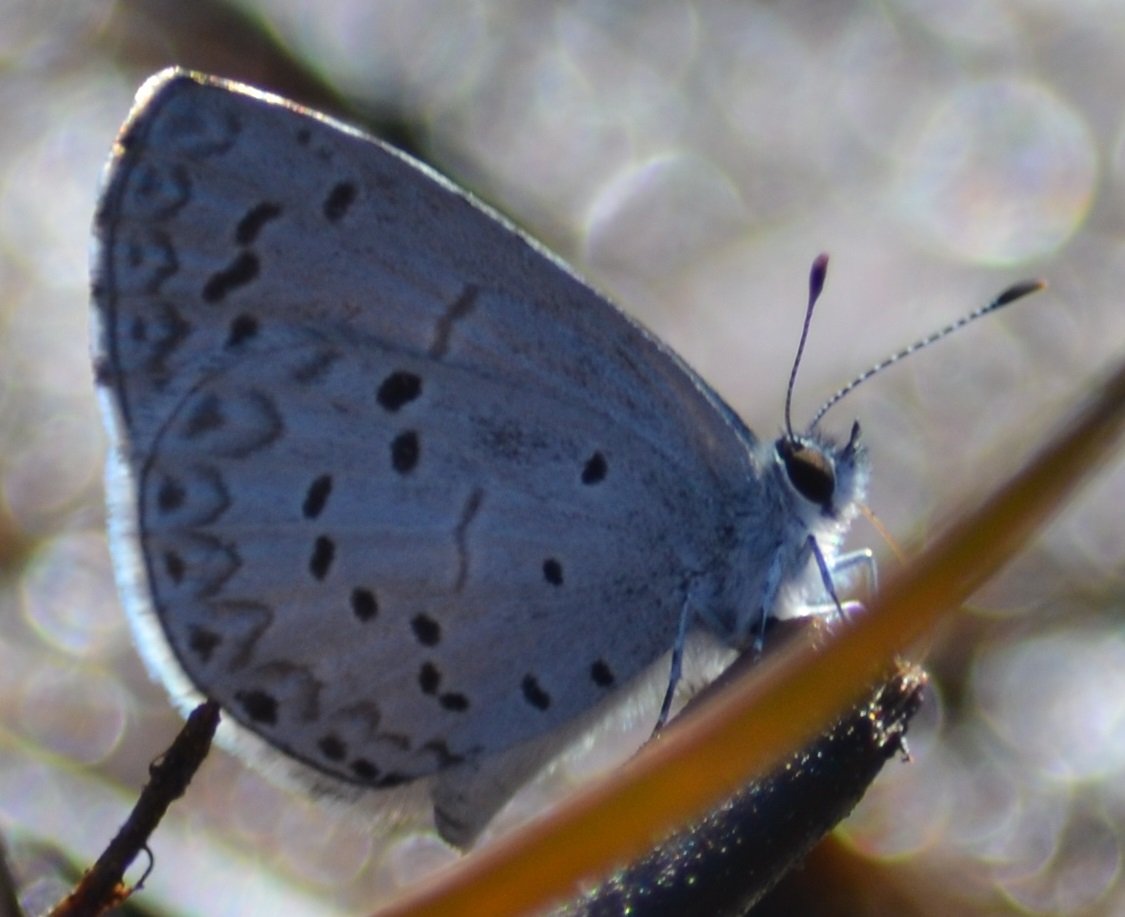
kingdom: Animalia
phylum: Arthropoda
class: Insecta
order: Lepidoptera
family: Lycaenidae
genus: Celastrina
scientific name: Celastrina
